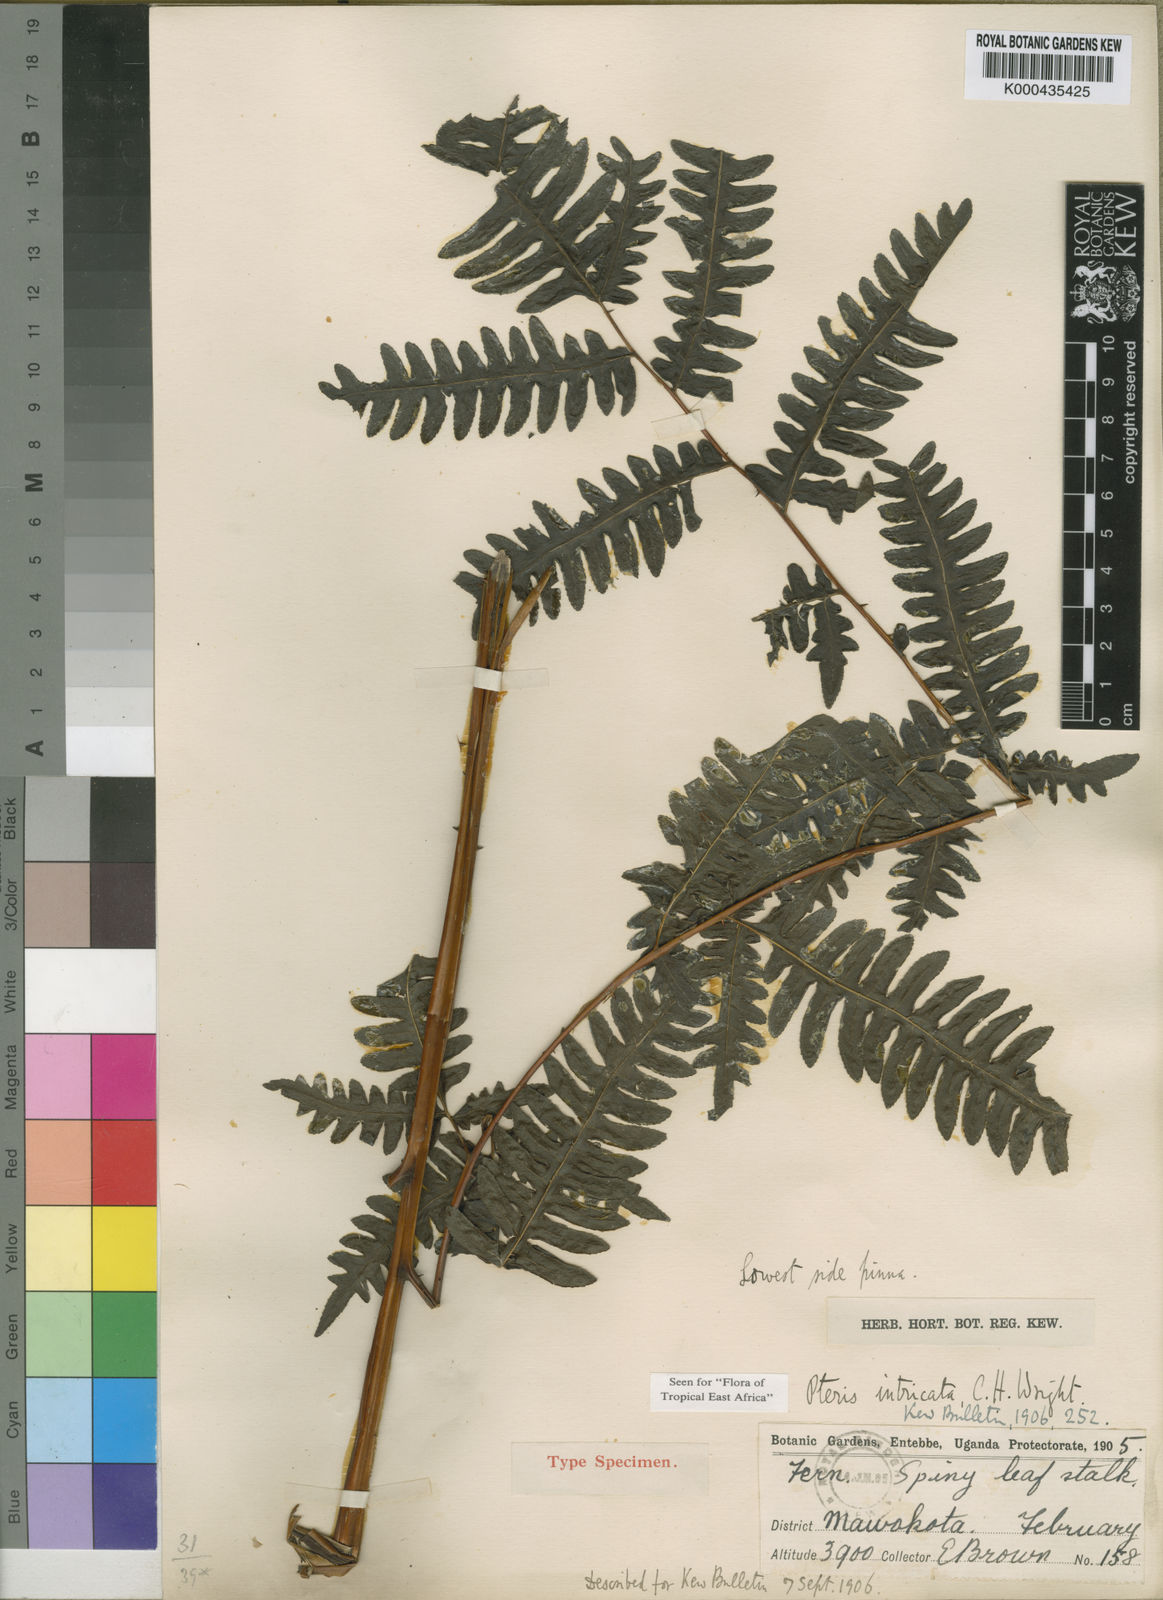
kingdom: Plantae
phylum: Tracheophyta
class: Polypodiopsida
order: Polypodiales
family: Pteridaceae
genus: Pteris
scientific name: Pteris intricata
